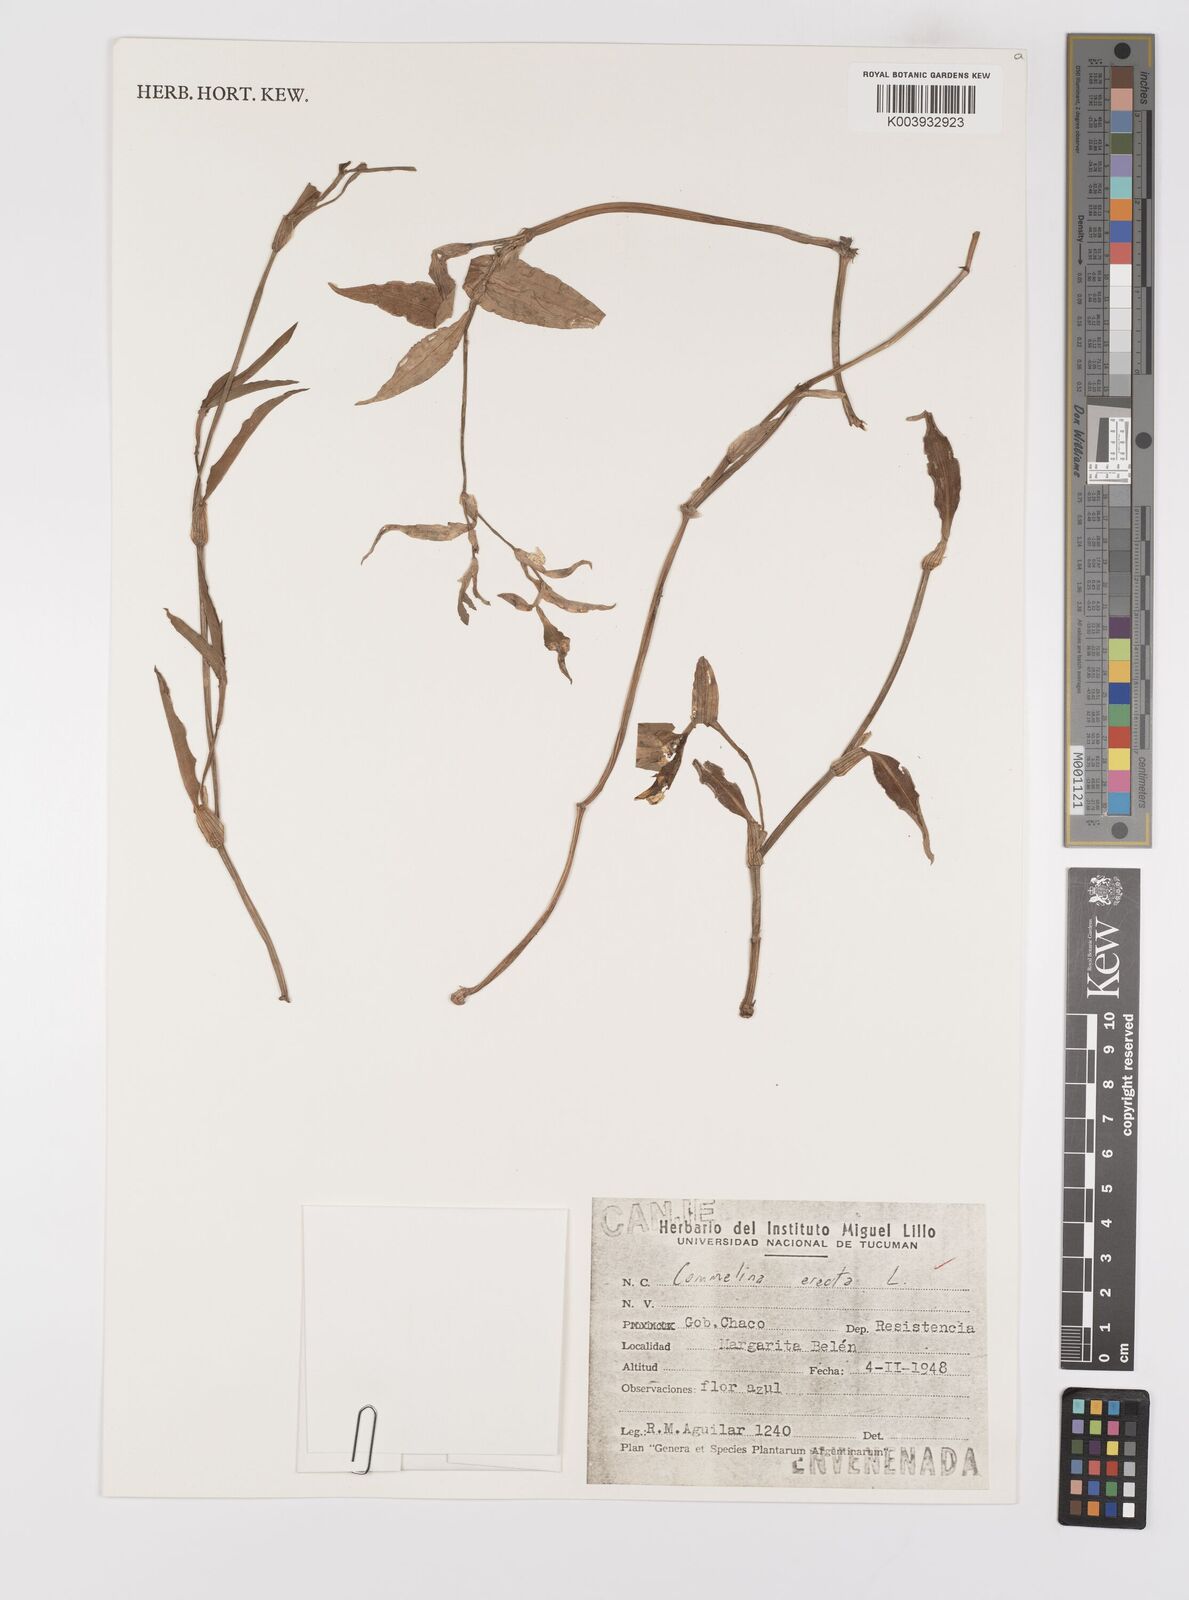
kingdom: Plantae
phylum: Tracheophyta
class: Liliopsida
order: Commelinales
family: Commelinaceae
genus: Commelina
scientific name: Commelina erecta
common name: Blousel blommetjie
